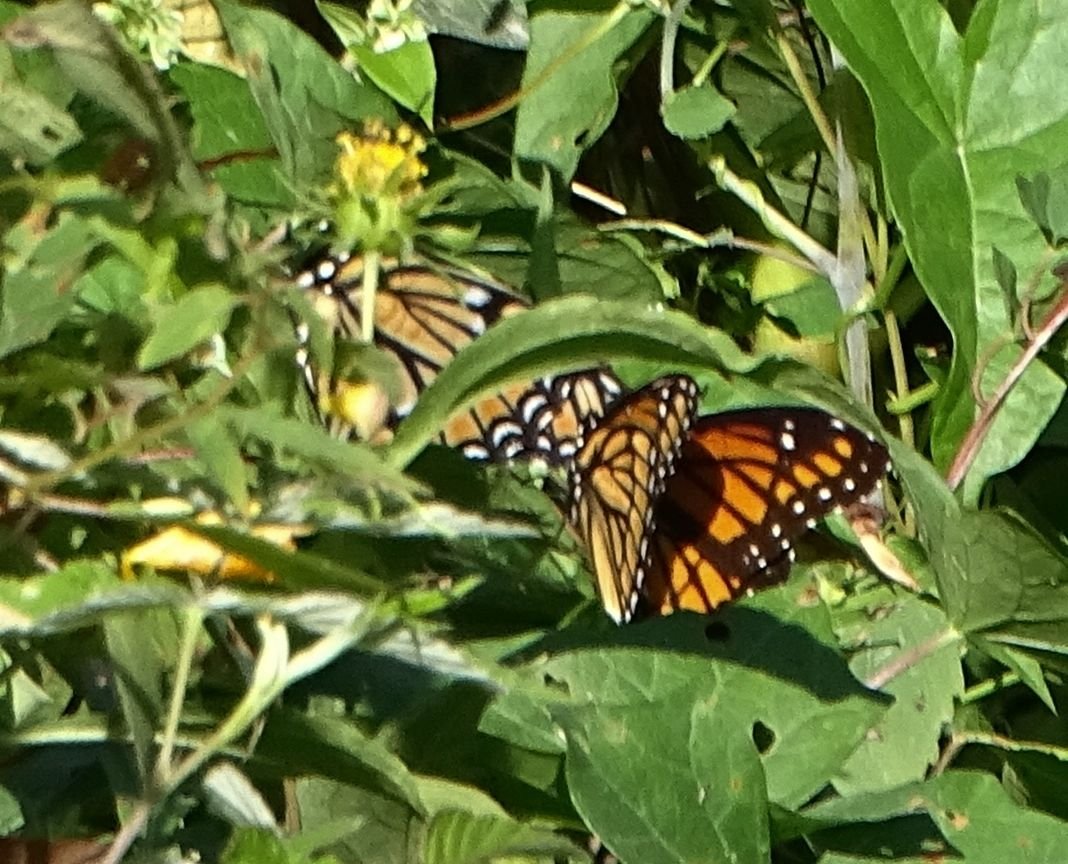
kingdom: Animalia
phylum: Arthropoda
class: Insecta
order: Lepidoptera
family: Nymphalidae
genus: Limenitis
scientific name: Limenitis archippus
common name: Viceroy
